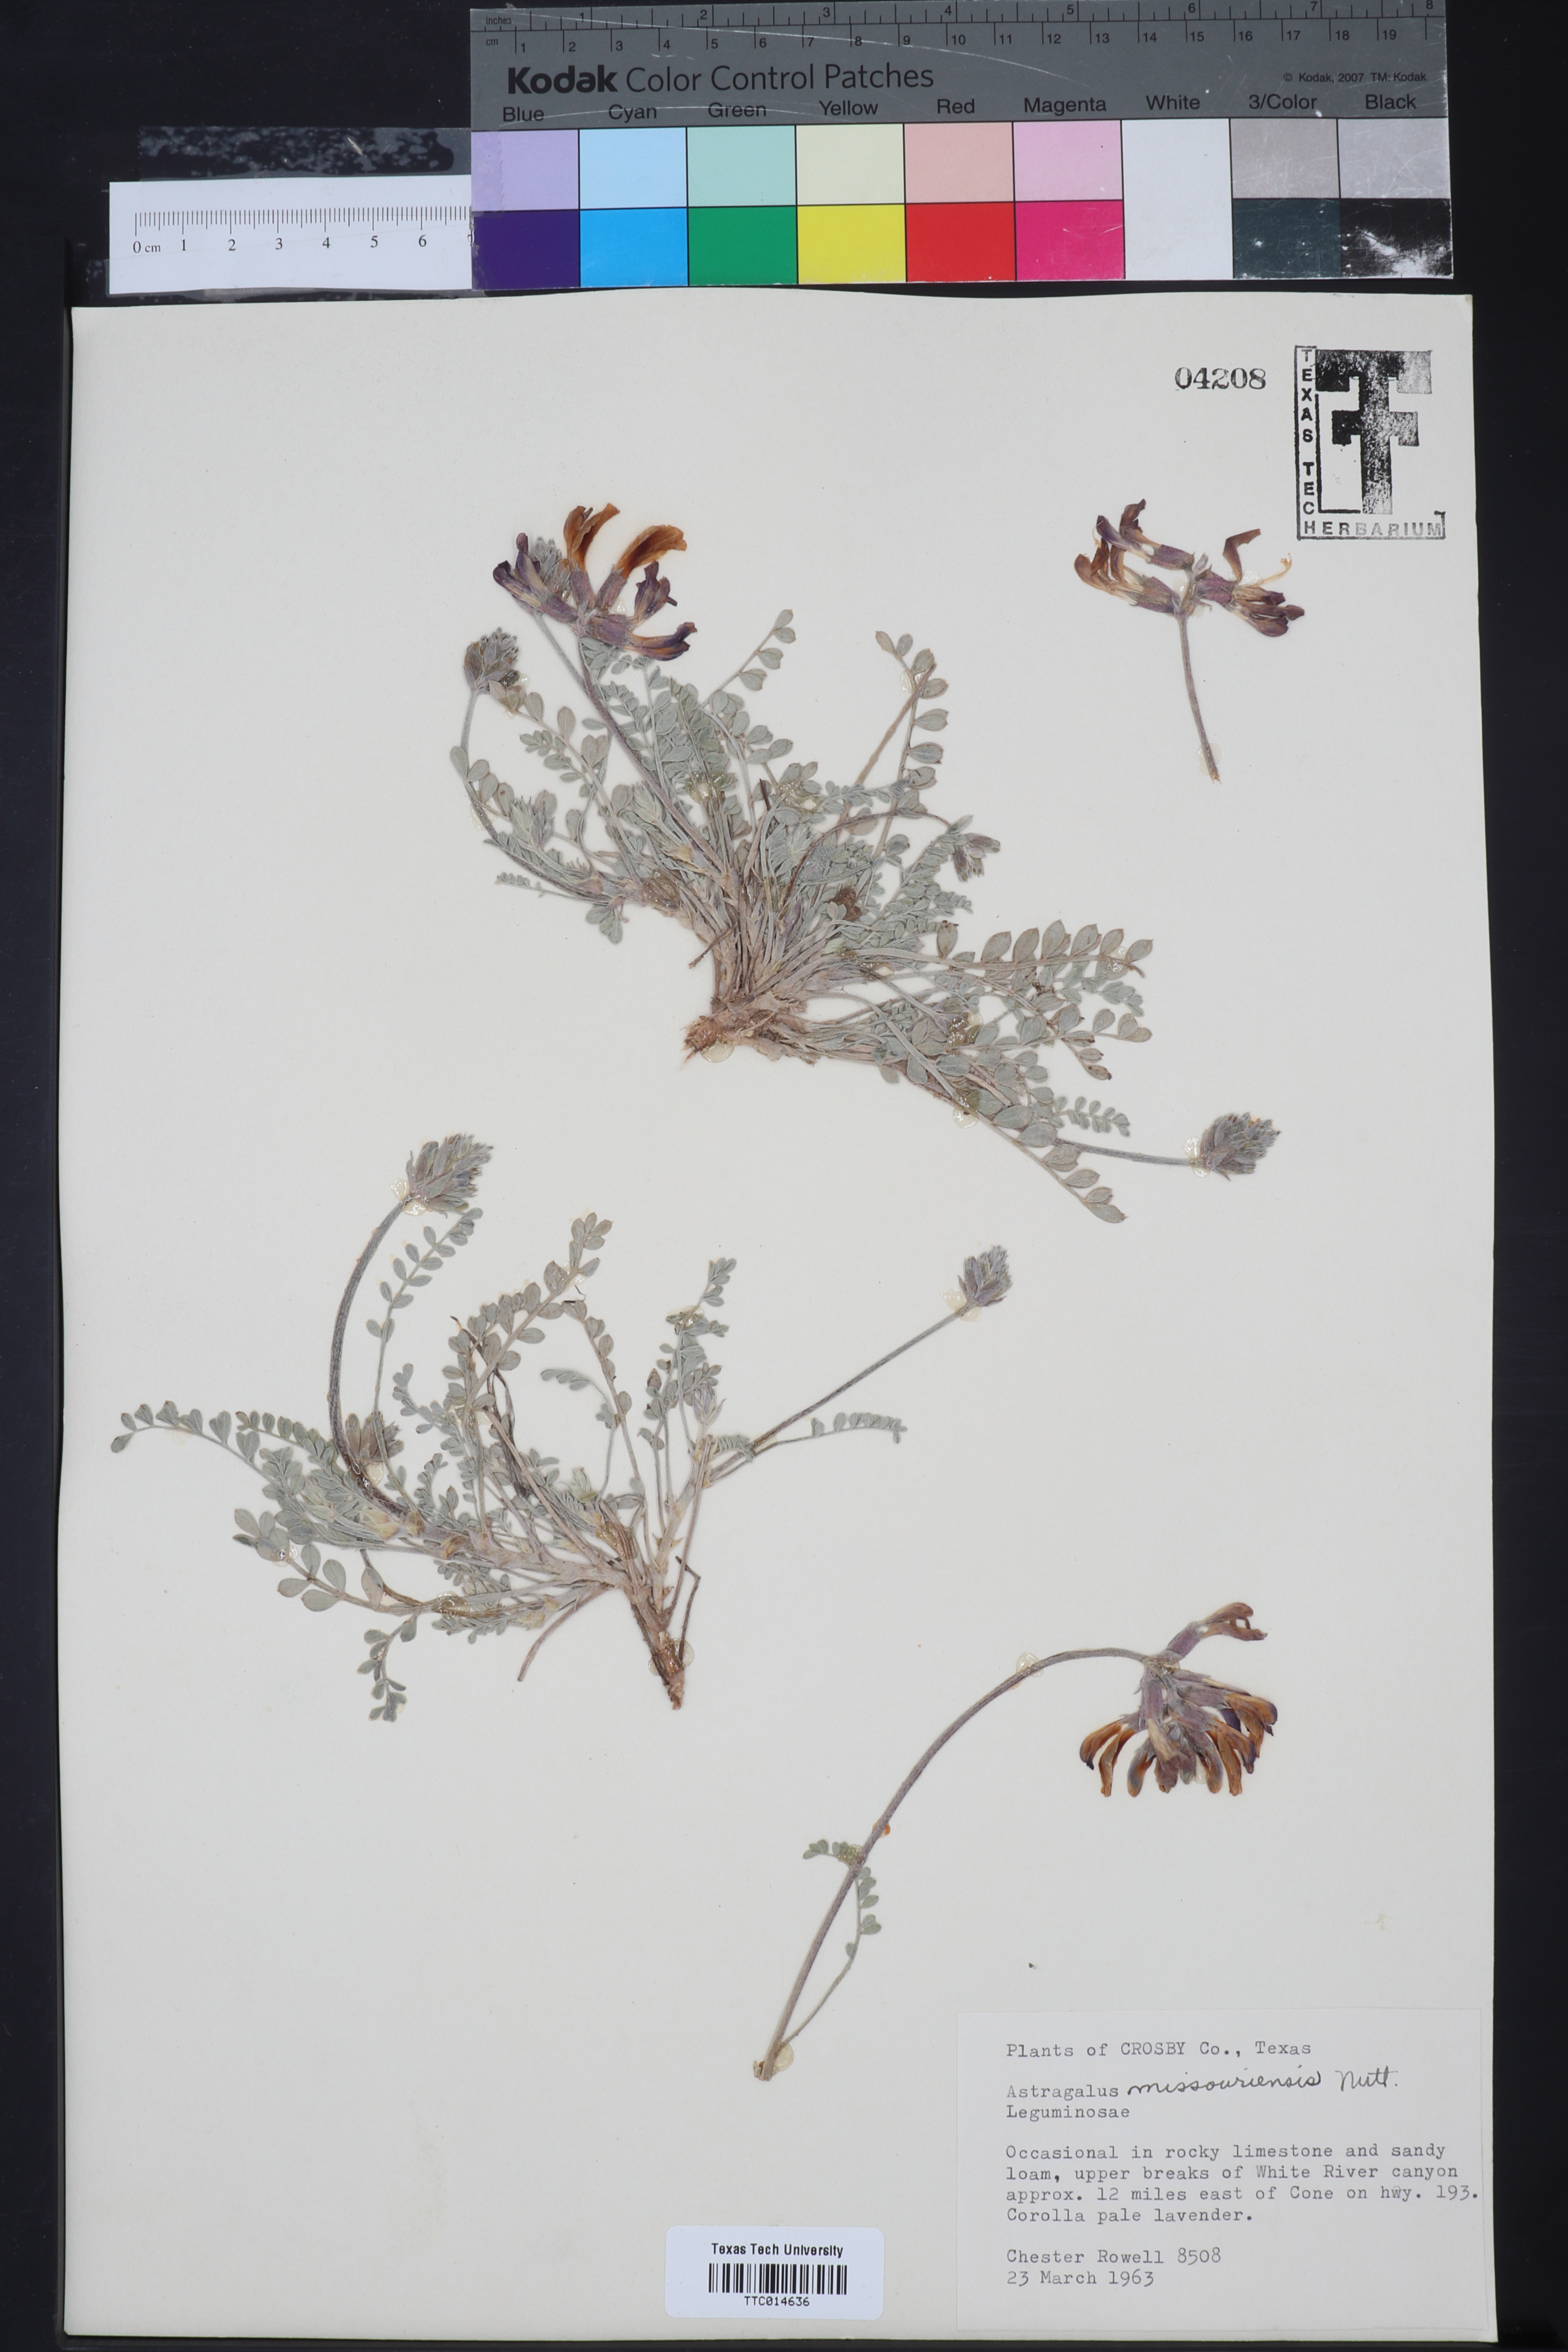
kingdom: Plantae
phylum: Tracheophyta
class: Magnoliopsida
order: Fabales
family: Fabaceae
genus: Astragalus
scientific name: Astragalus missouriensis
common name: Missouri milk-vetch
